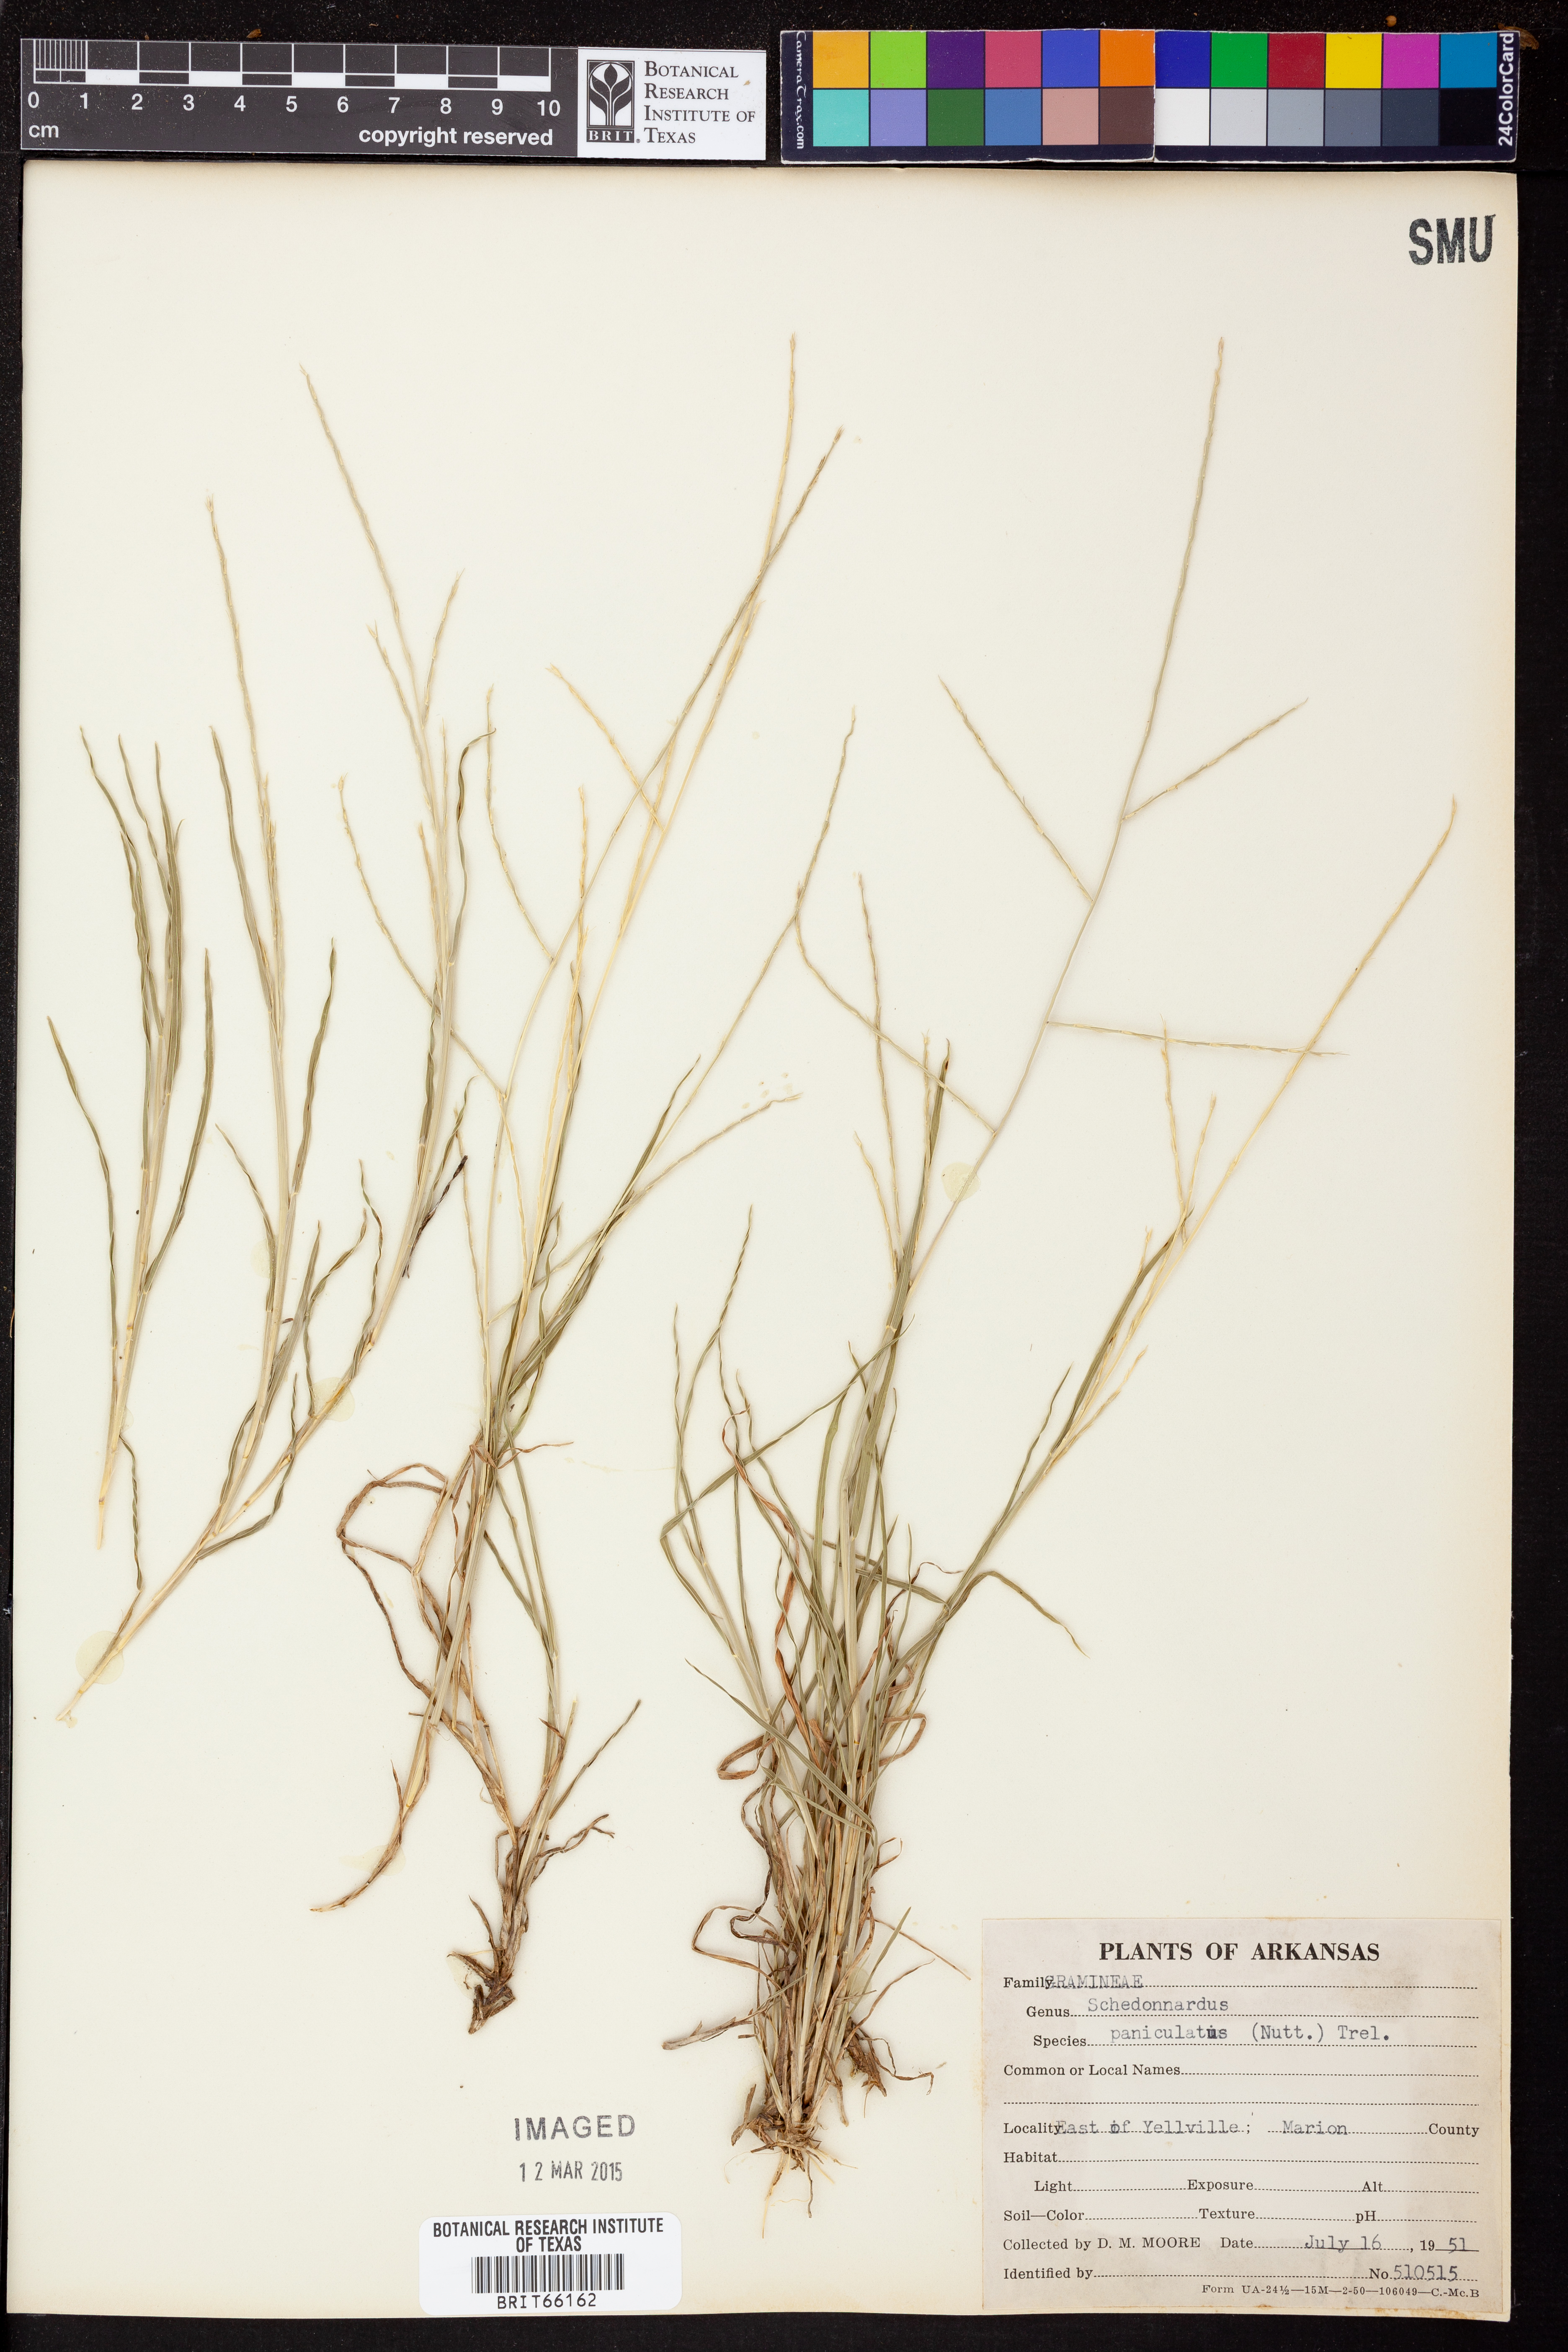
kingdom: Plantae
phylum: Tracheophyta
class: Liliopsida
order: Poales
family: Poaceae
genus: Muhlenbergia
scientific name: Muhlenbergia paniculata
